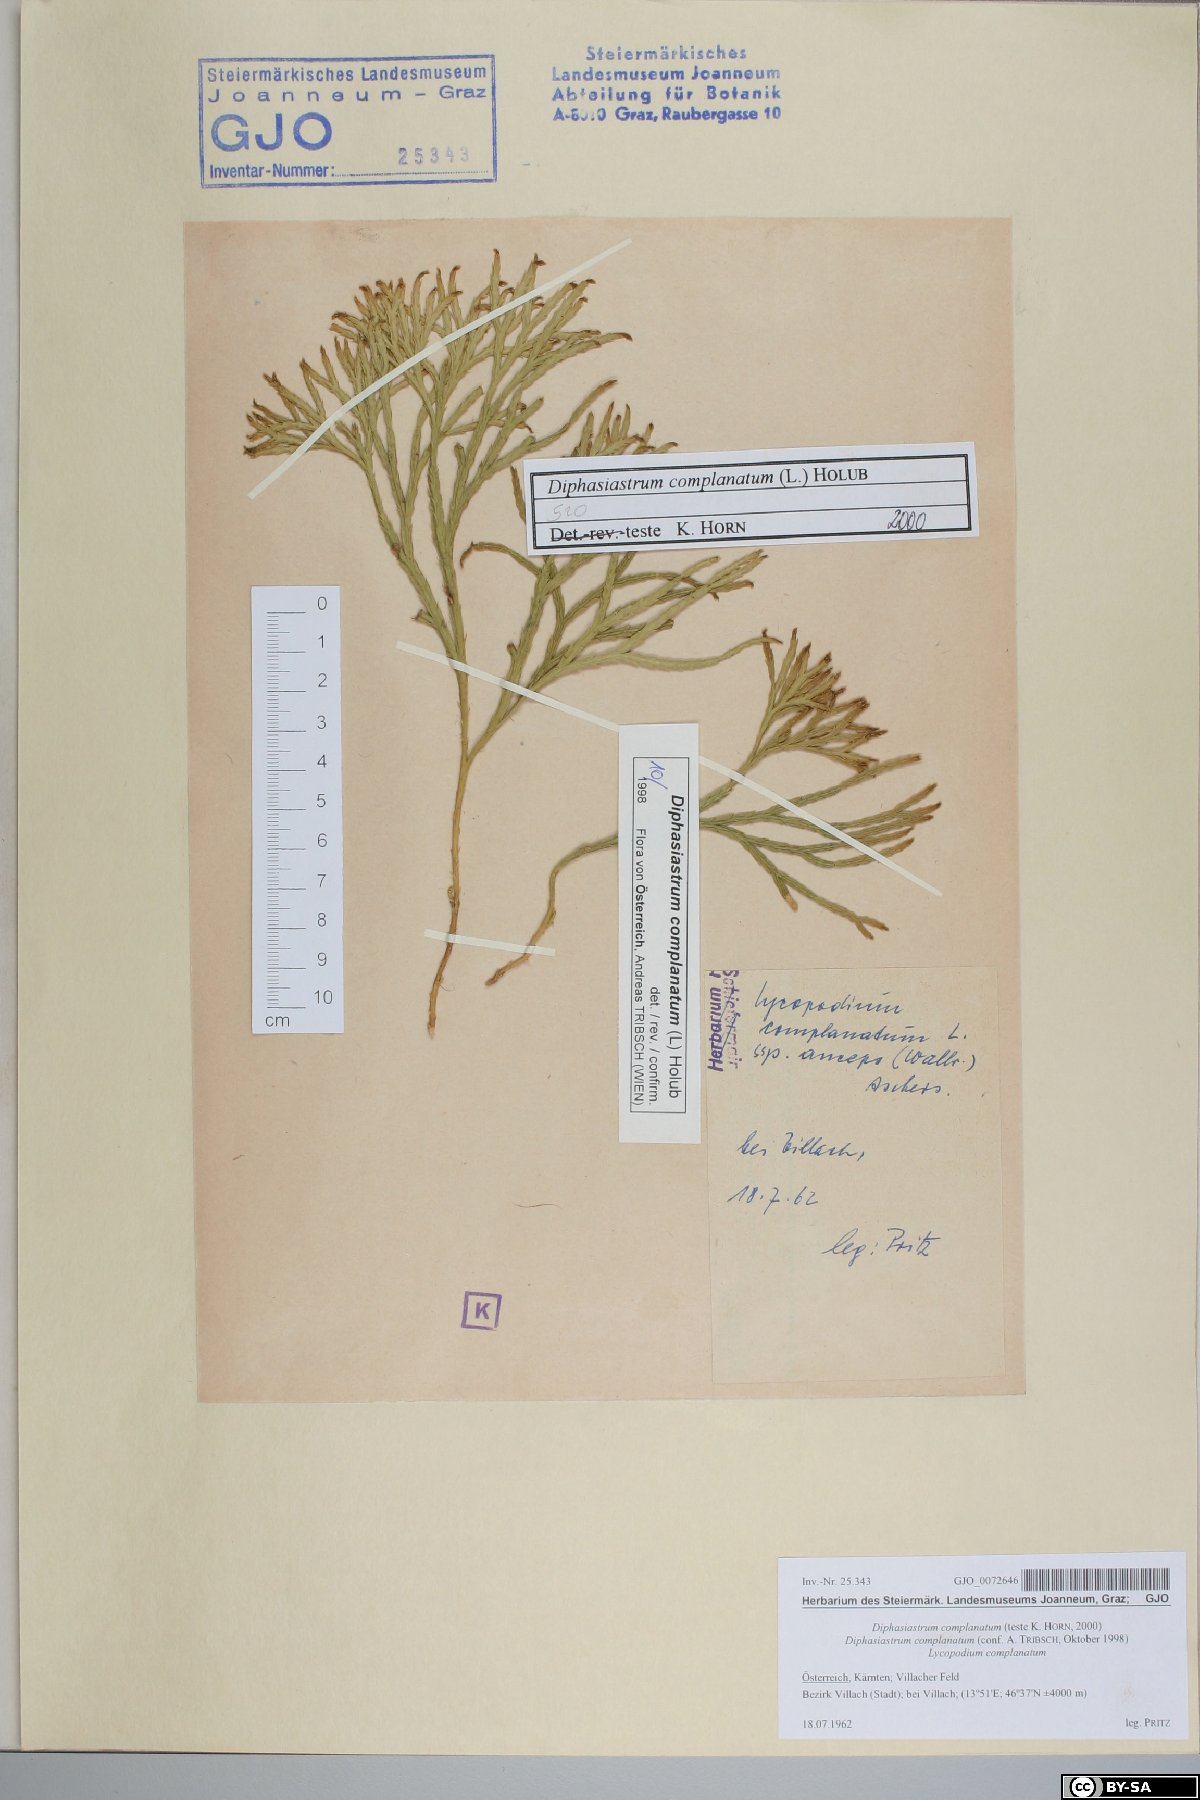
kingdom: Plantae
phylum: Tracheophyta
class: Lycopodiopsida
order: Lycopodiales
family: Lycopodiaceae
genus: Diphasiastrum
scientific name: Diphasiastrum complanatum
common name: Northern running-pine
